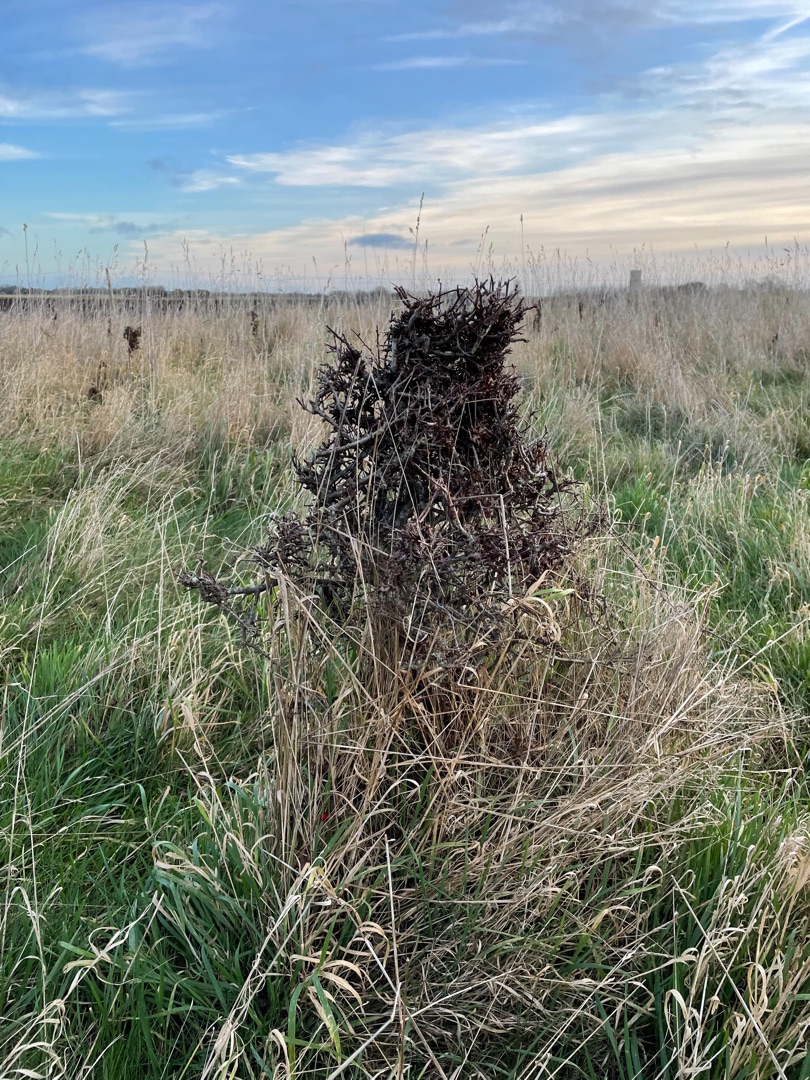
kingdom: Plantae
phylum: Tracheophyta
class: Magnoliopsida
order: Rosales
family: Rosaceae
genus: Crataegus
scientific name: Crataegus monogyna
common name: Engriflet hvidtjørn
